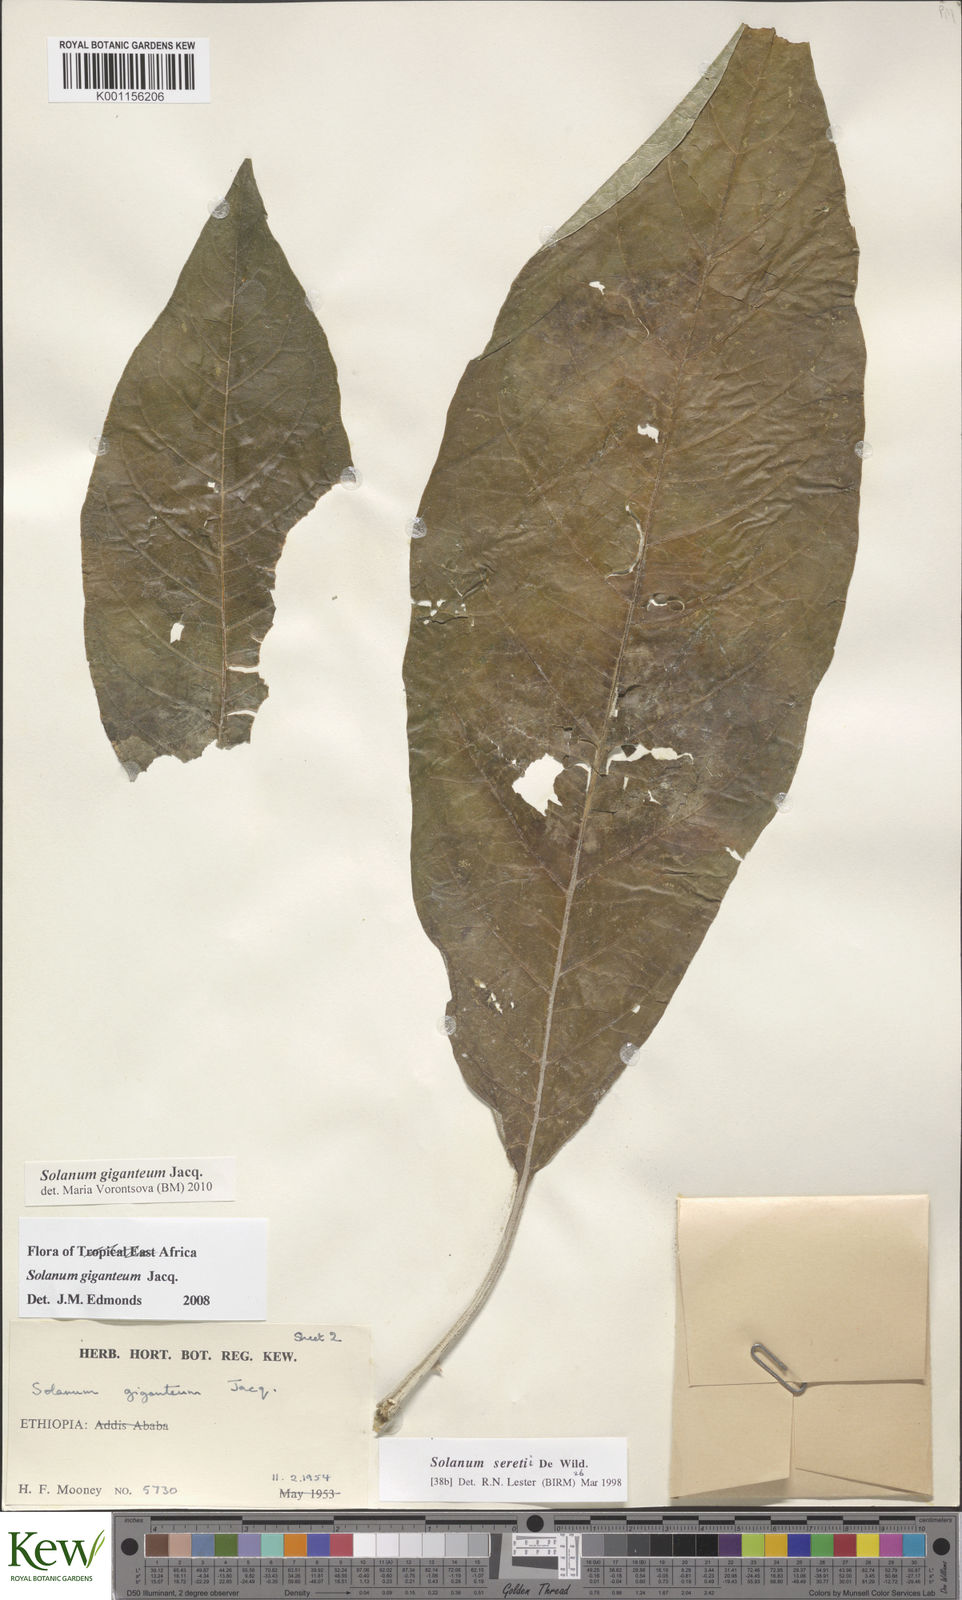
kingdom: Plantae
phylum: Tracheophyta
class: Magnoliopsida
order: Solanales
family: Solanaceae
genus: Solanum
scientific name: Solanum giganteum
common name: Healing-leaf-tree
